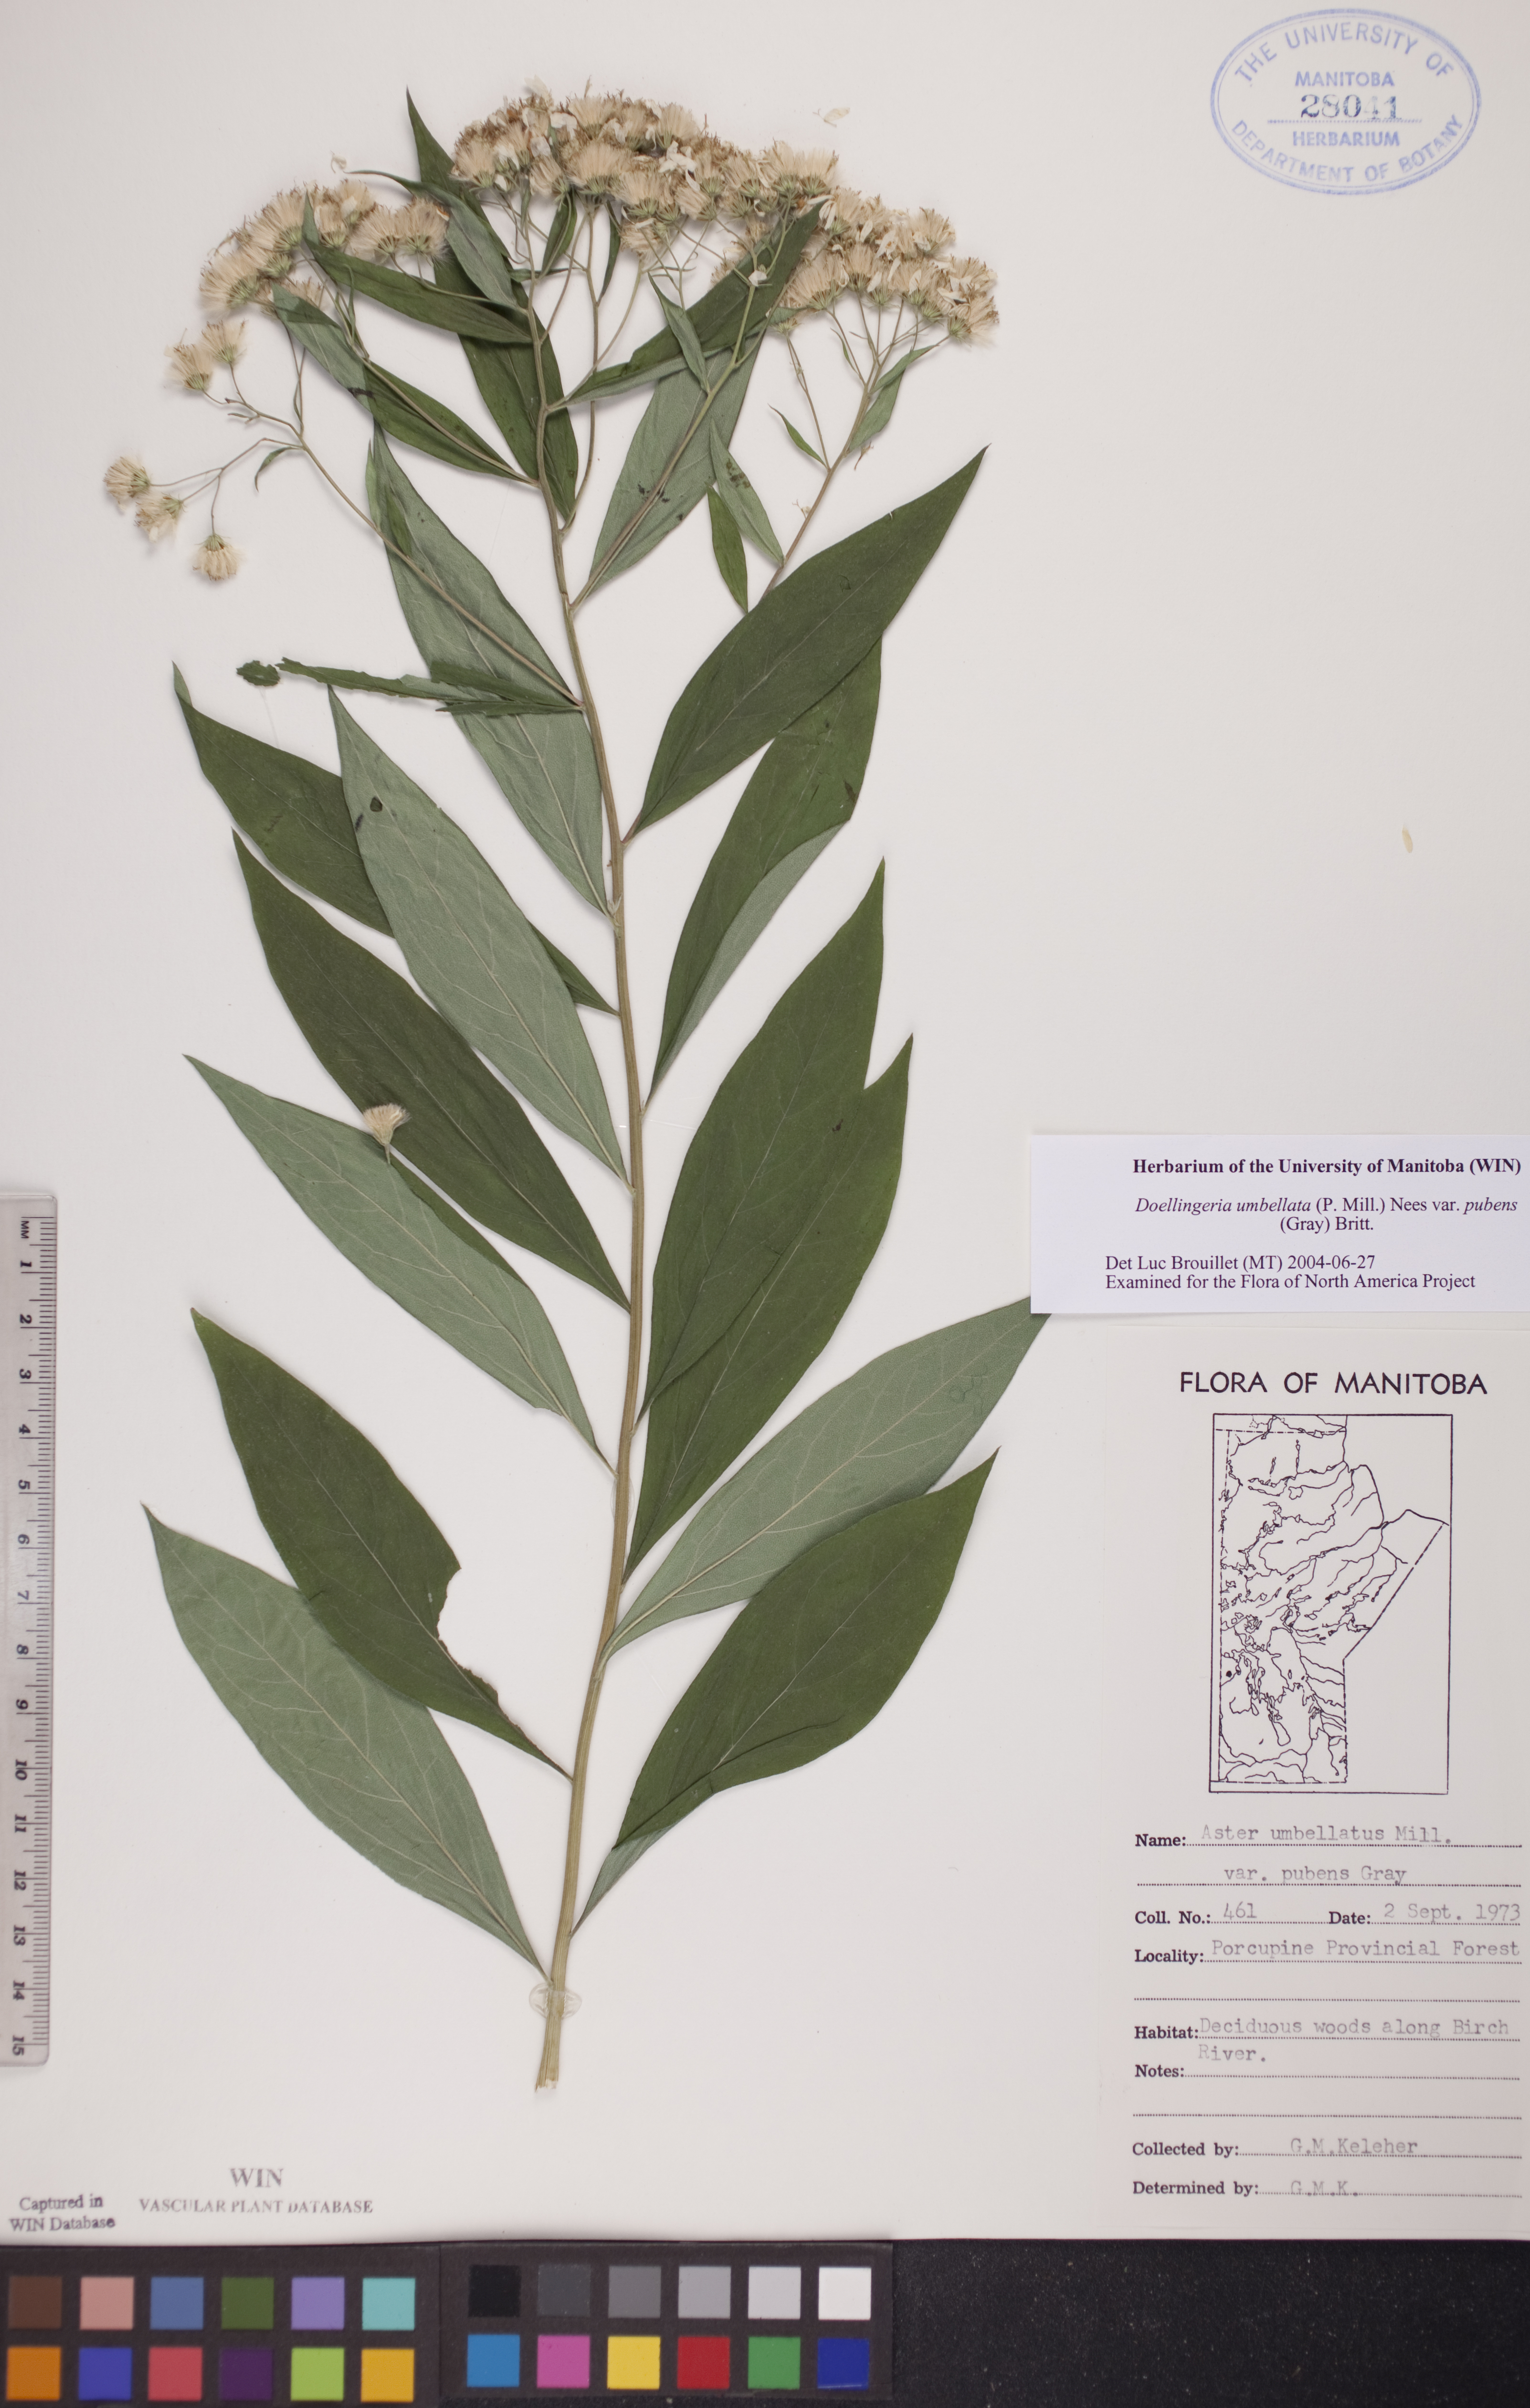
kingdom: Plantae
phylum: Tracheophyta
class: Magnoliopsida
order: Asterales
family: Asteraceae
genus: Doellingeria
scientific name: Doellingeria umbellata
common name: Flat-top white aster
